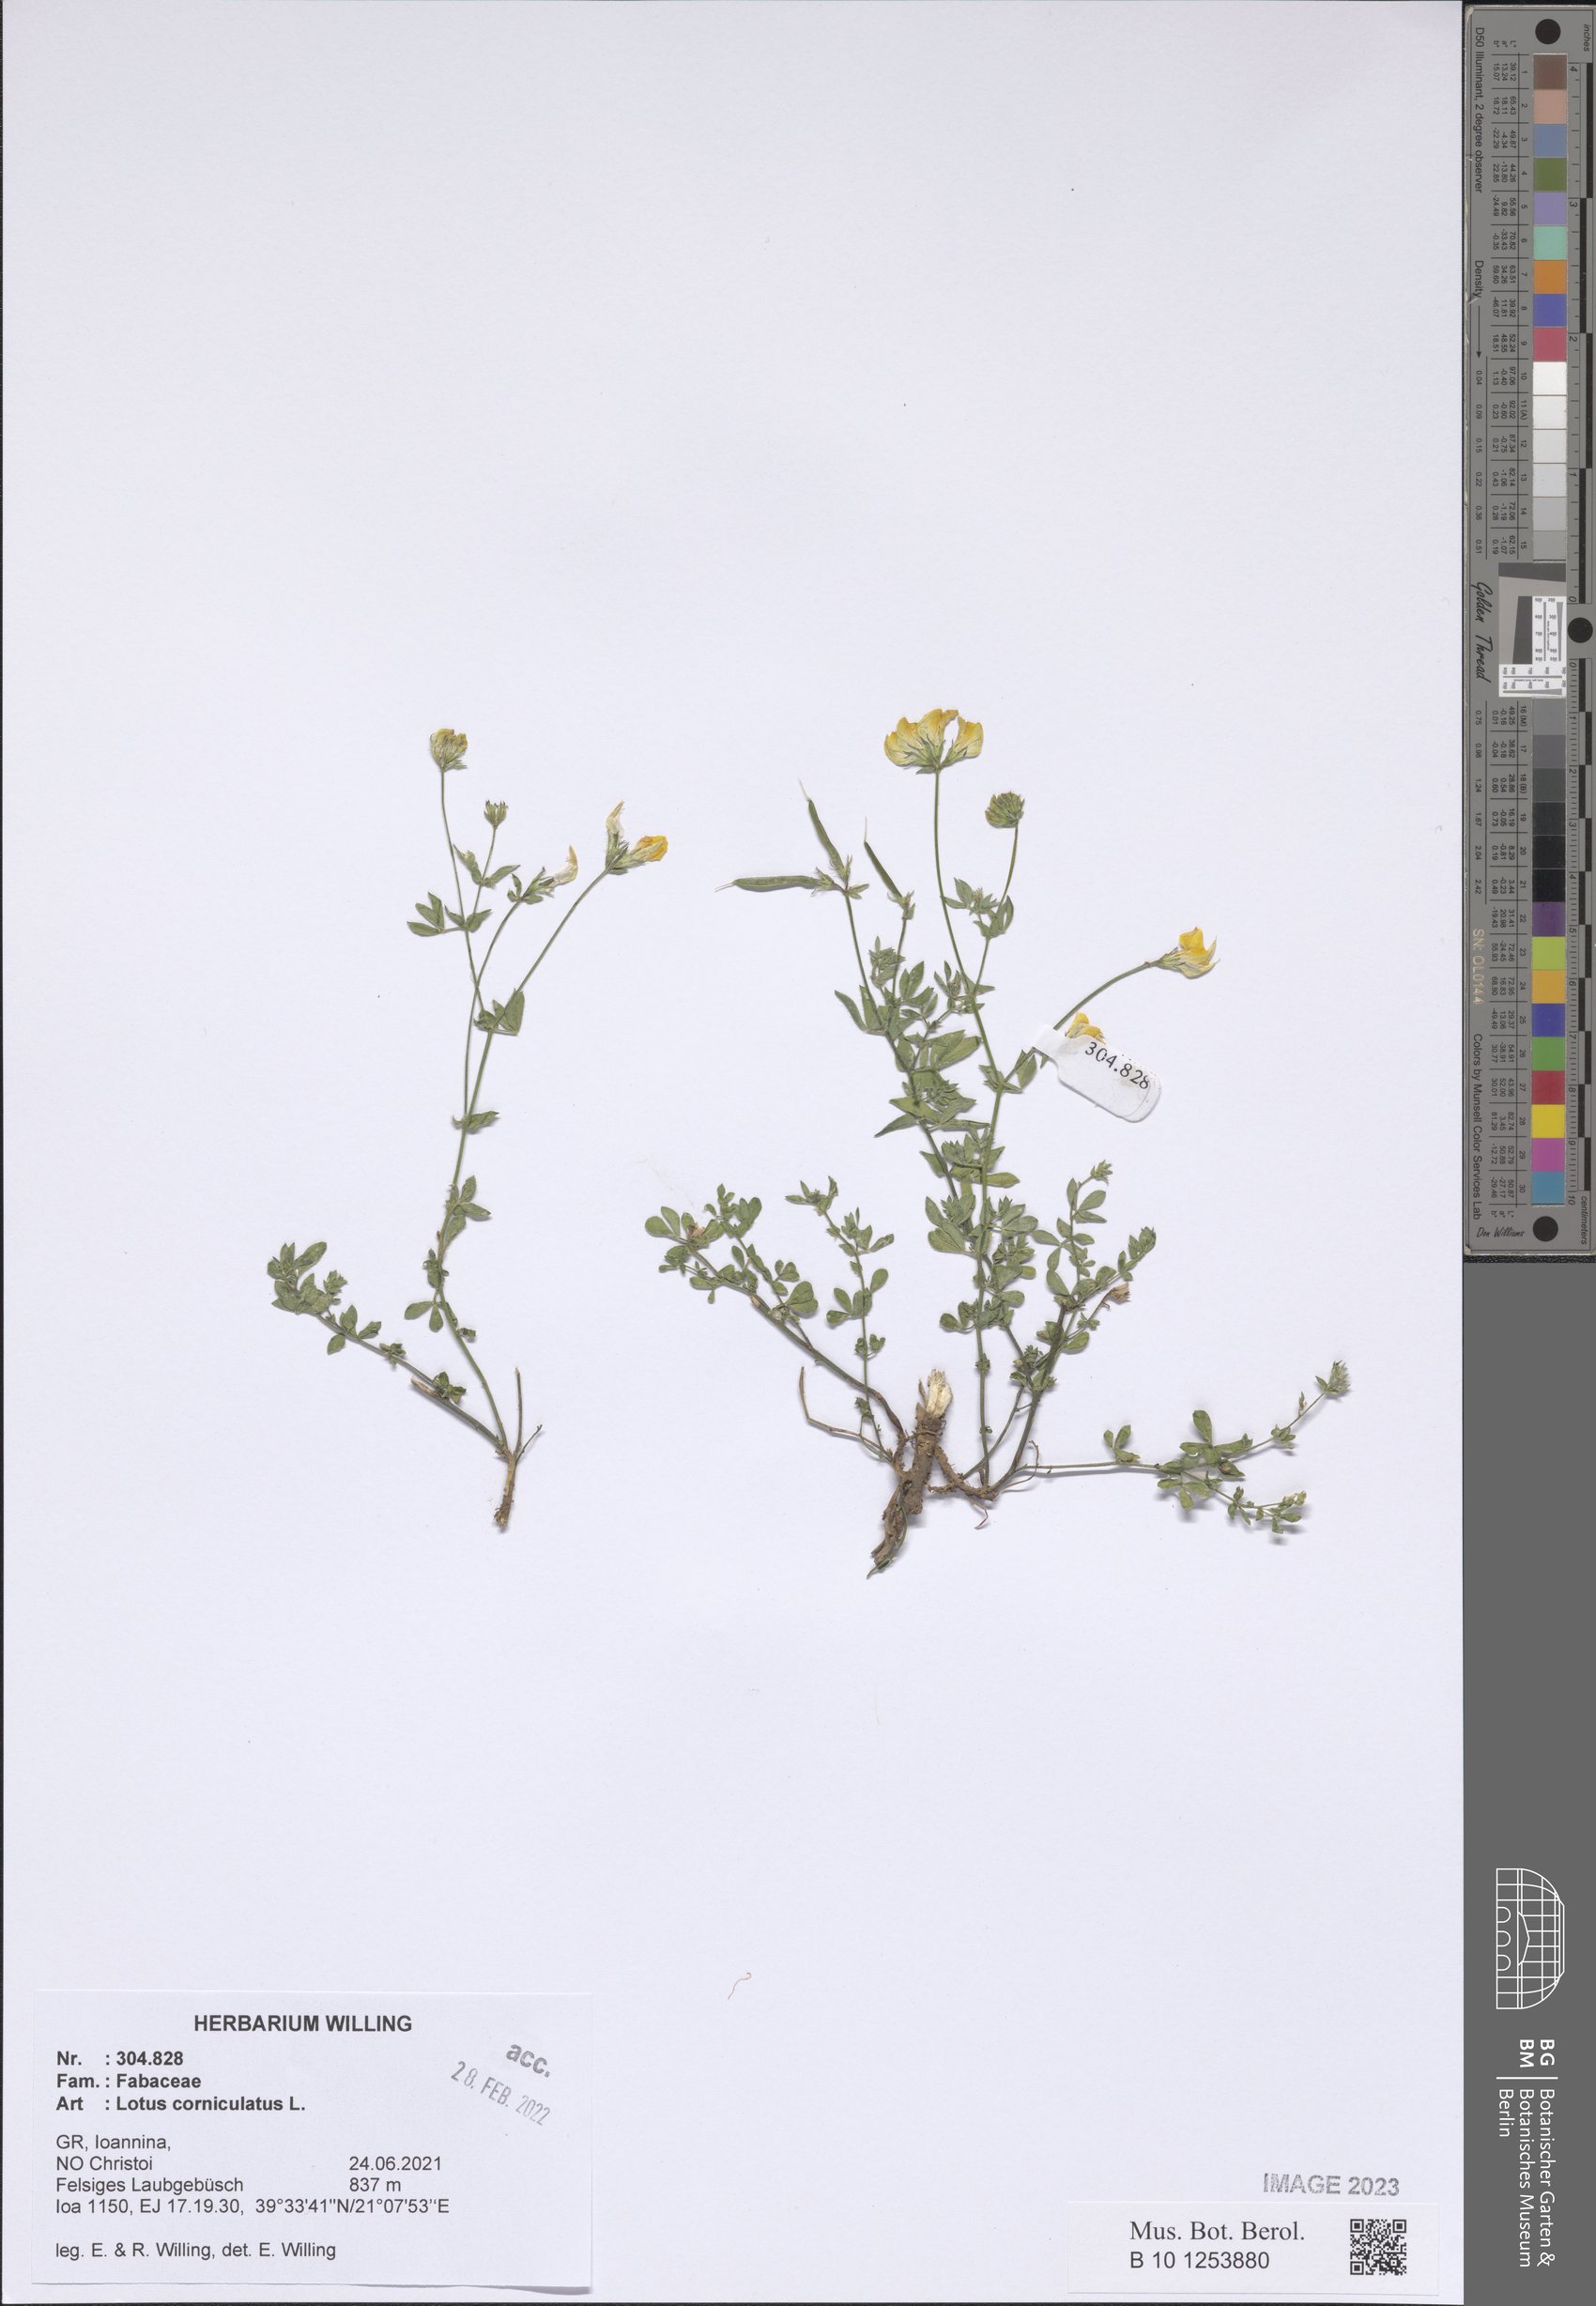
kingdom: Plantae
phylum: Tracheophyta
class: Magnoliopsida
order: Fabales
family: Fabaceae
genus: Lotus
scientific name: Lotus corniculatus
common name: Common bird's-foot-trefoil
